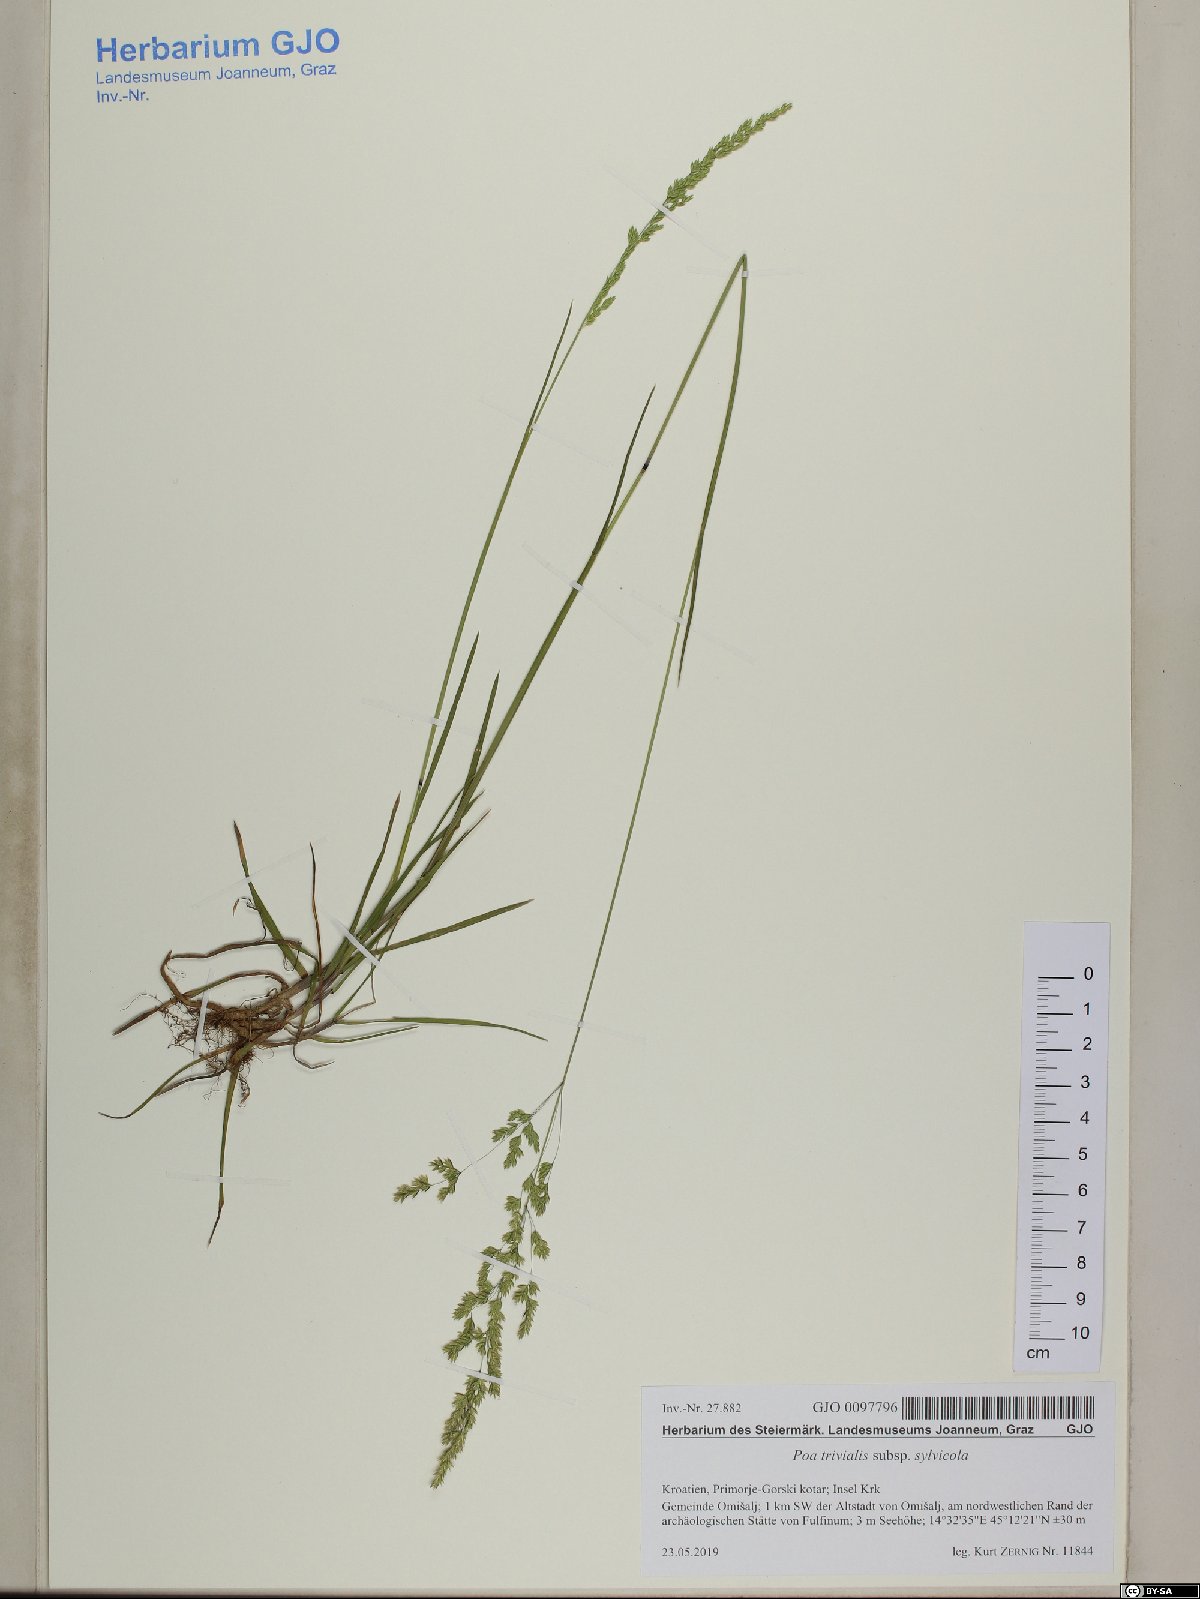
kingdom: Plantae
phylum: Tracheophyta
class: Liliopsida
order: Poales
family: Poaceae
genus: Poa
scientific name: Poa trivialis
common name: Rough bluegrass
